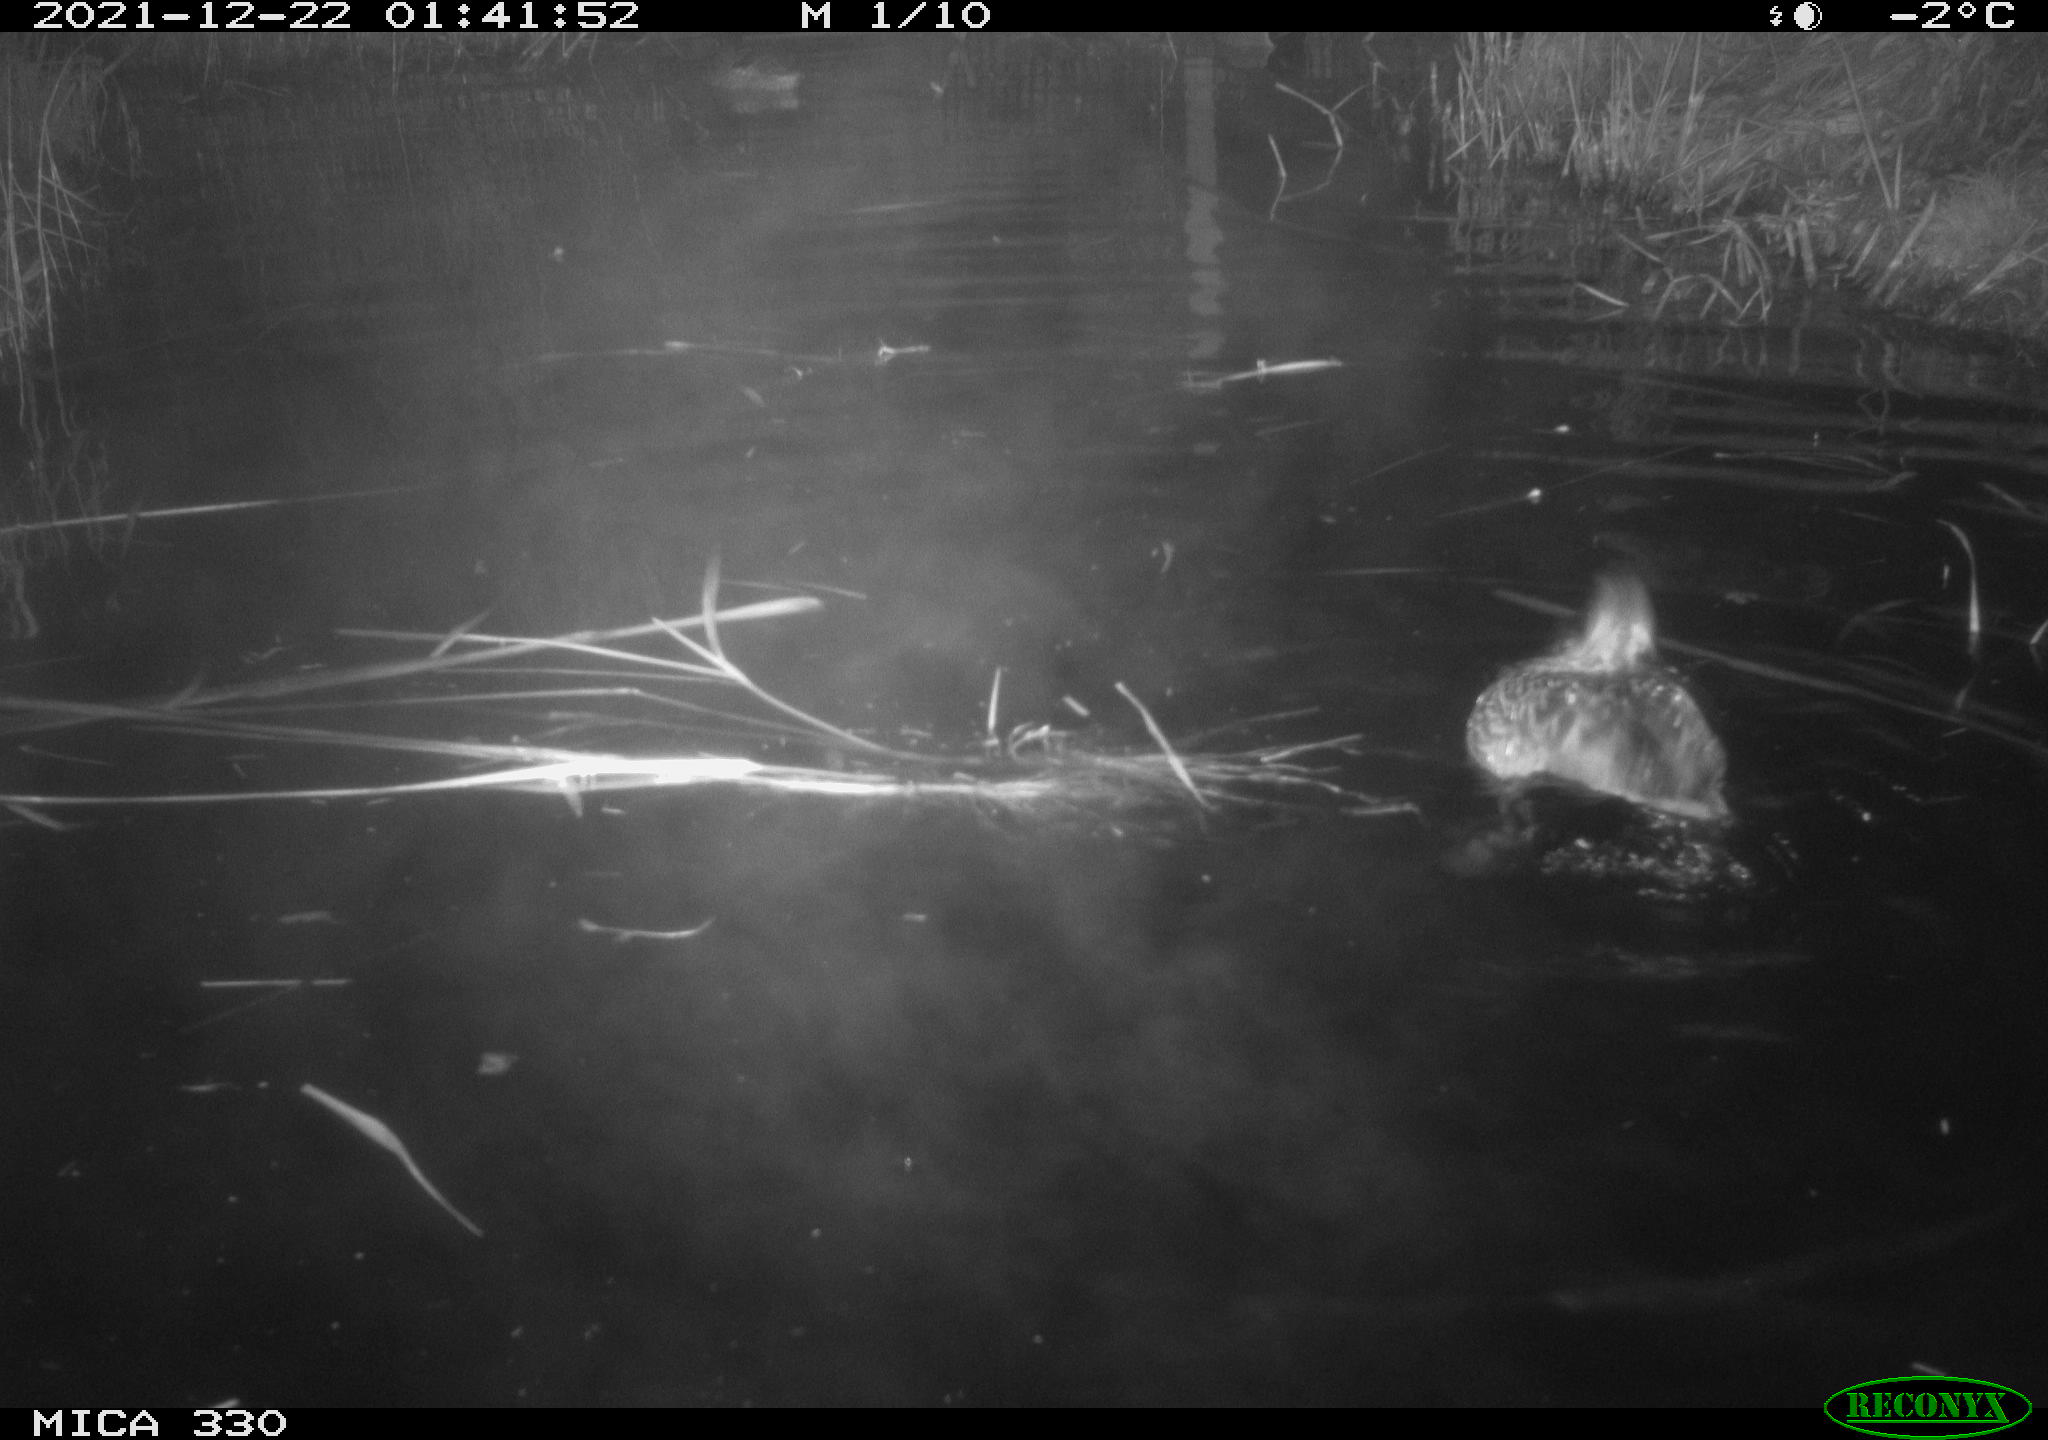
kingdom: Animalia
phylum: Chordata
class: Aves
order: Anseriformes
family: Anatidae
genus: Anas
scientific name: Anas platyrhynchos
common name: Mallard
